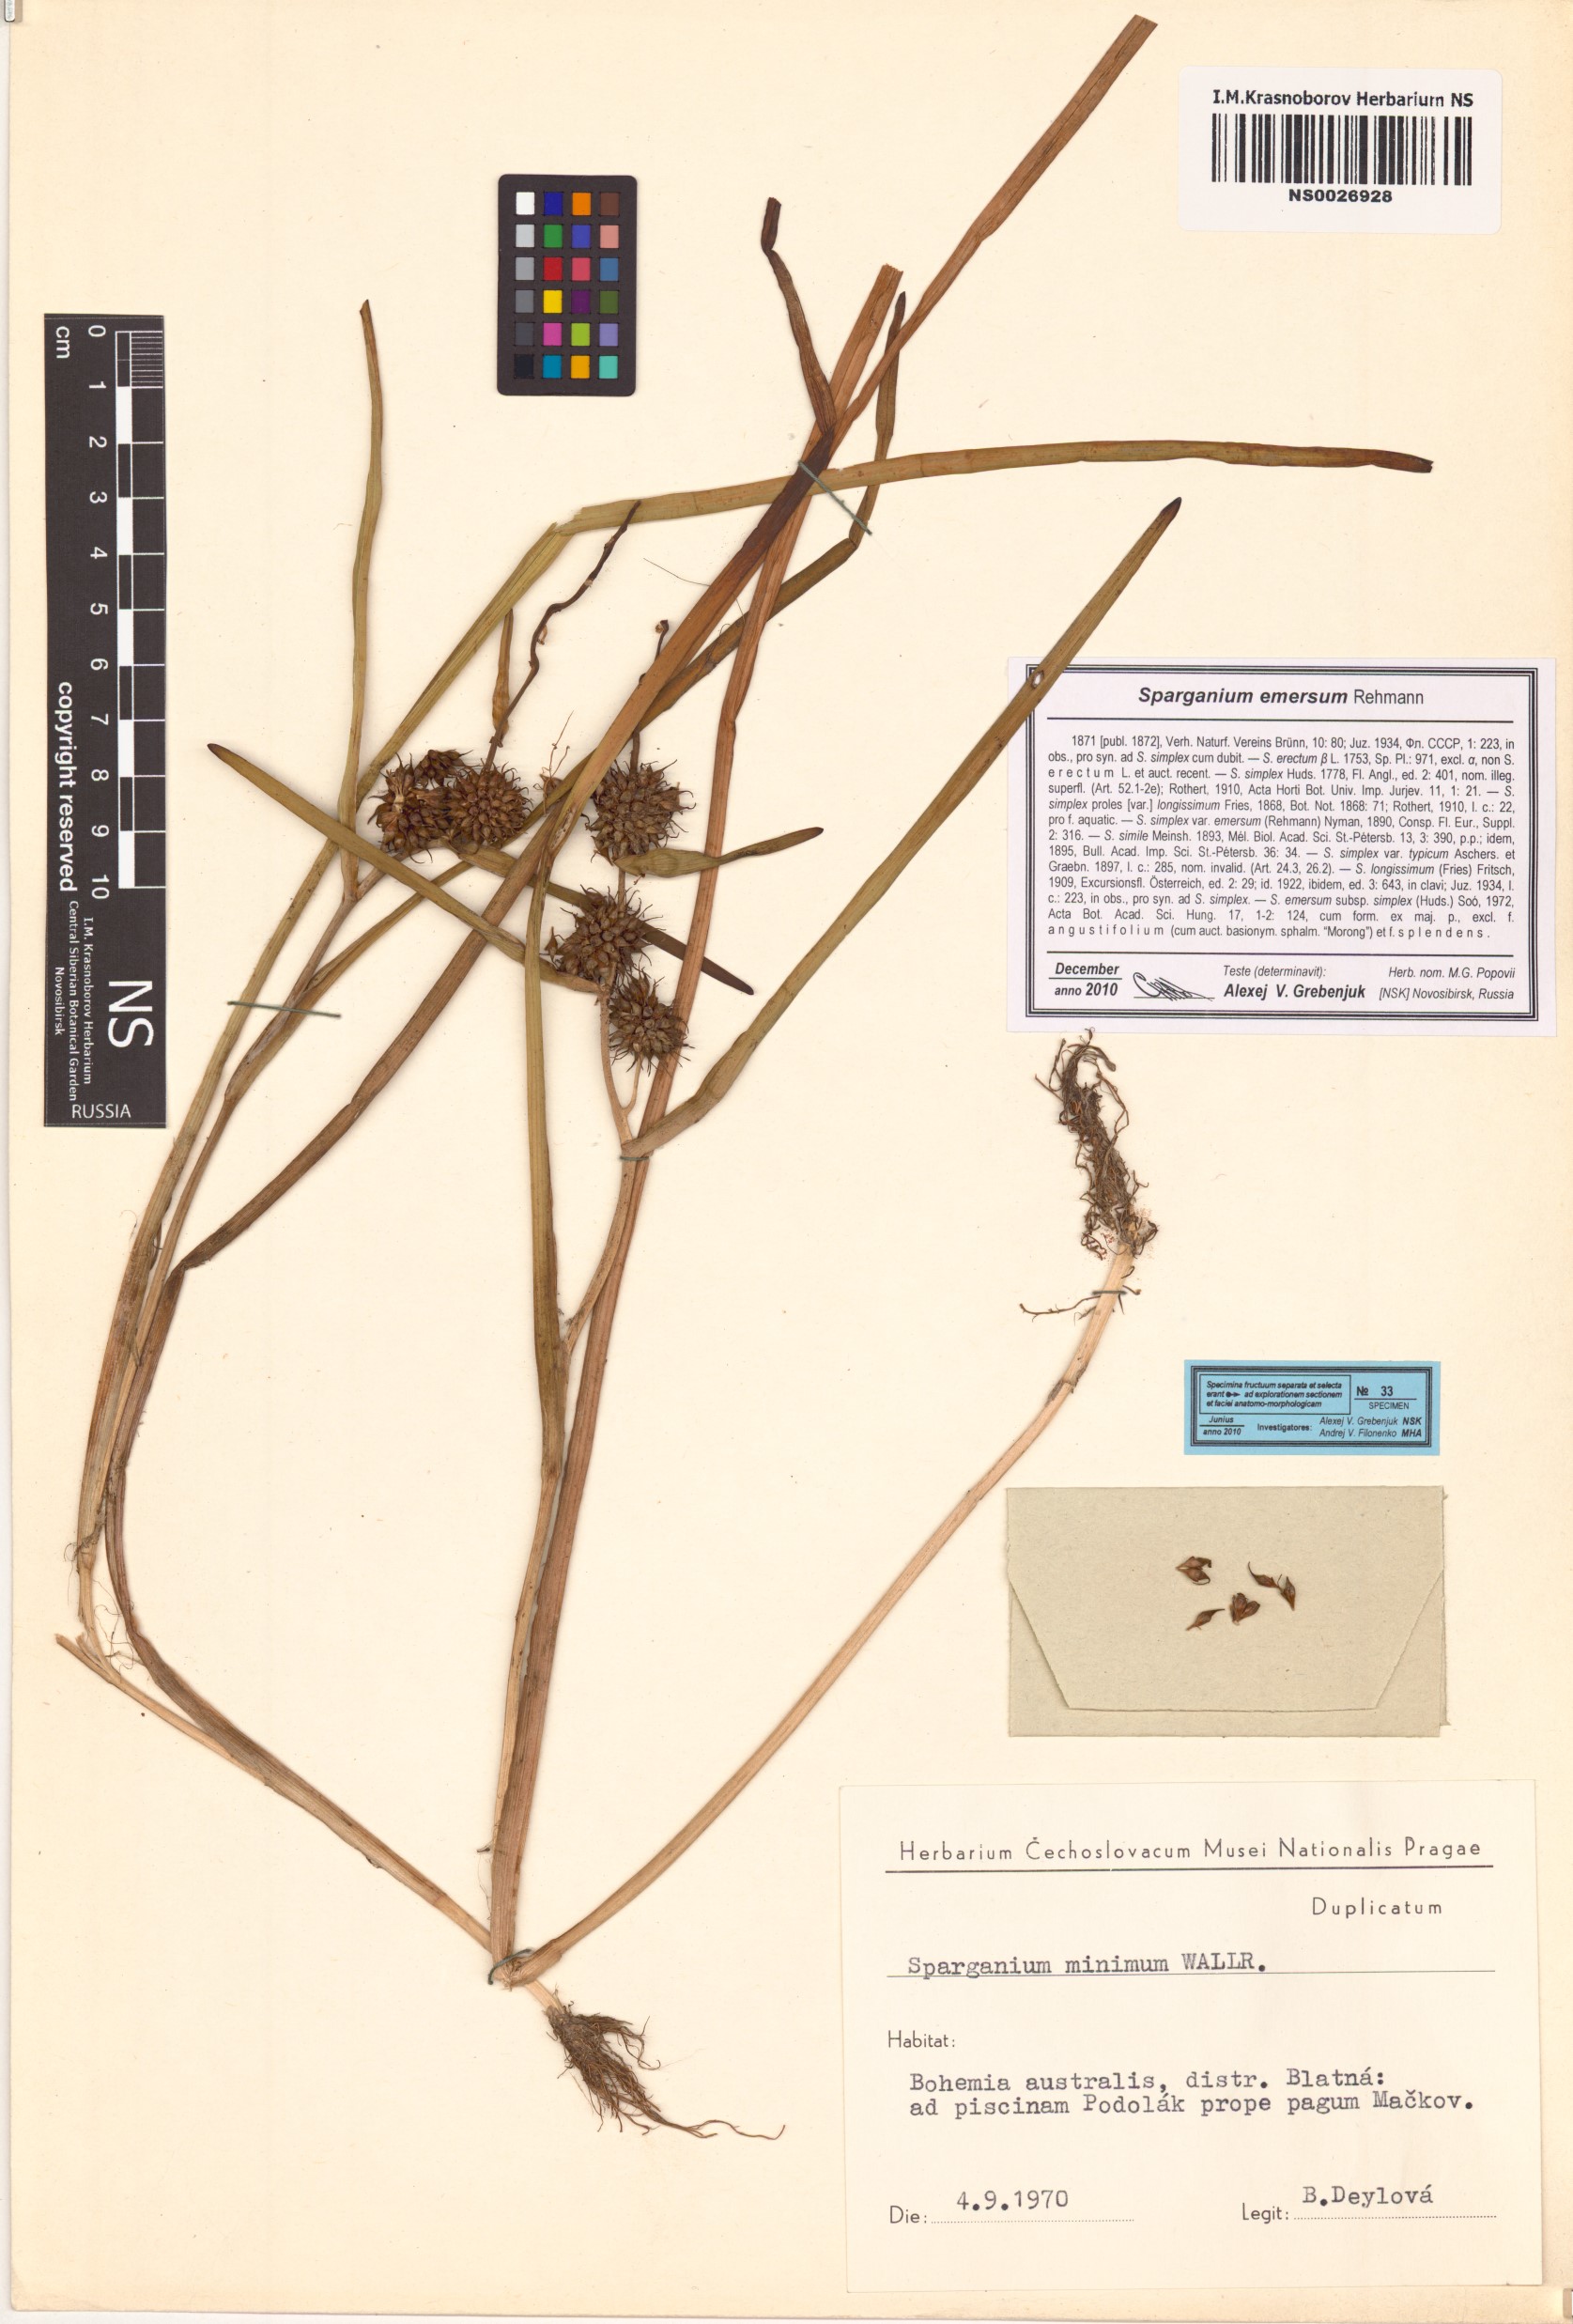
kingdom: Plantae
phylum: Tracheophyta
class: Liliopsida
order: Poales
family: Typhaceae
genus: Sparganium
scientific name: Sparganium emersum
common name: Unbranched bur-reed
